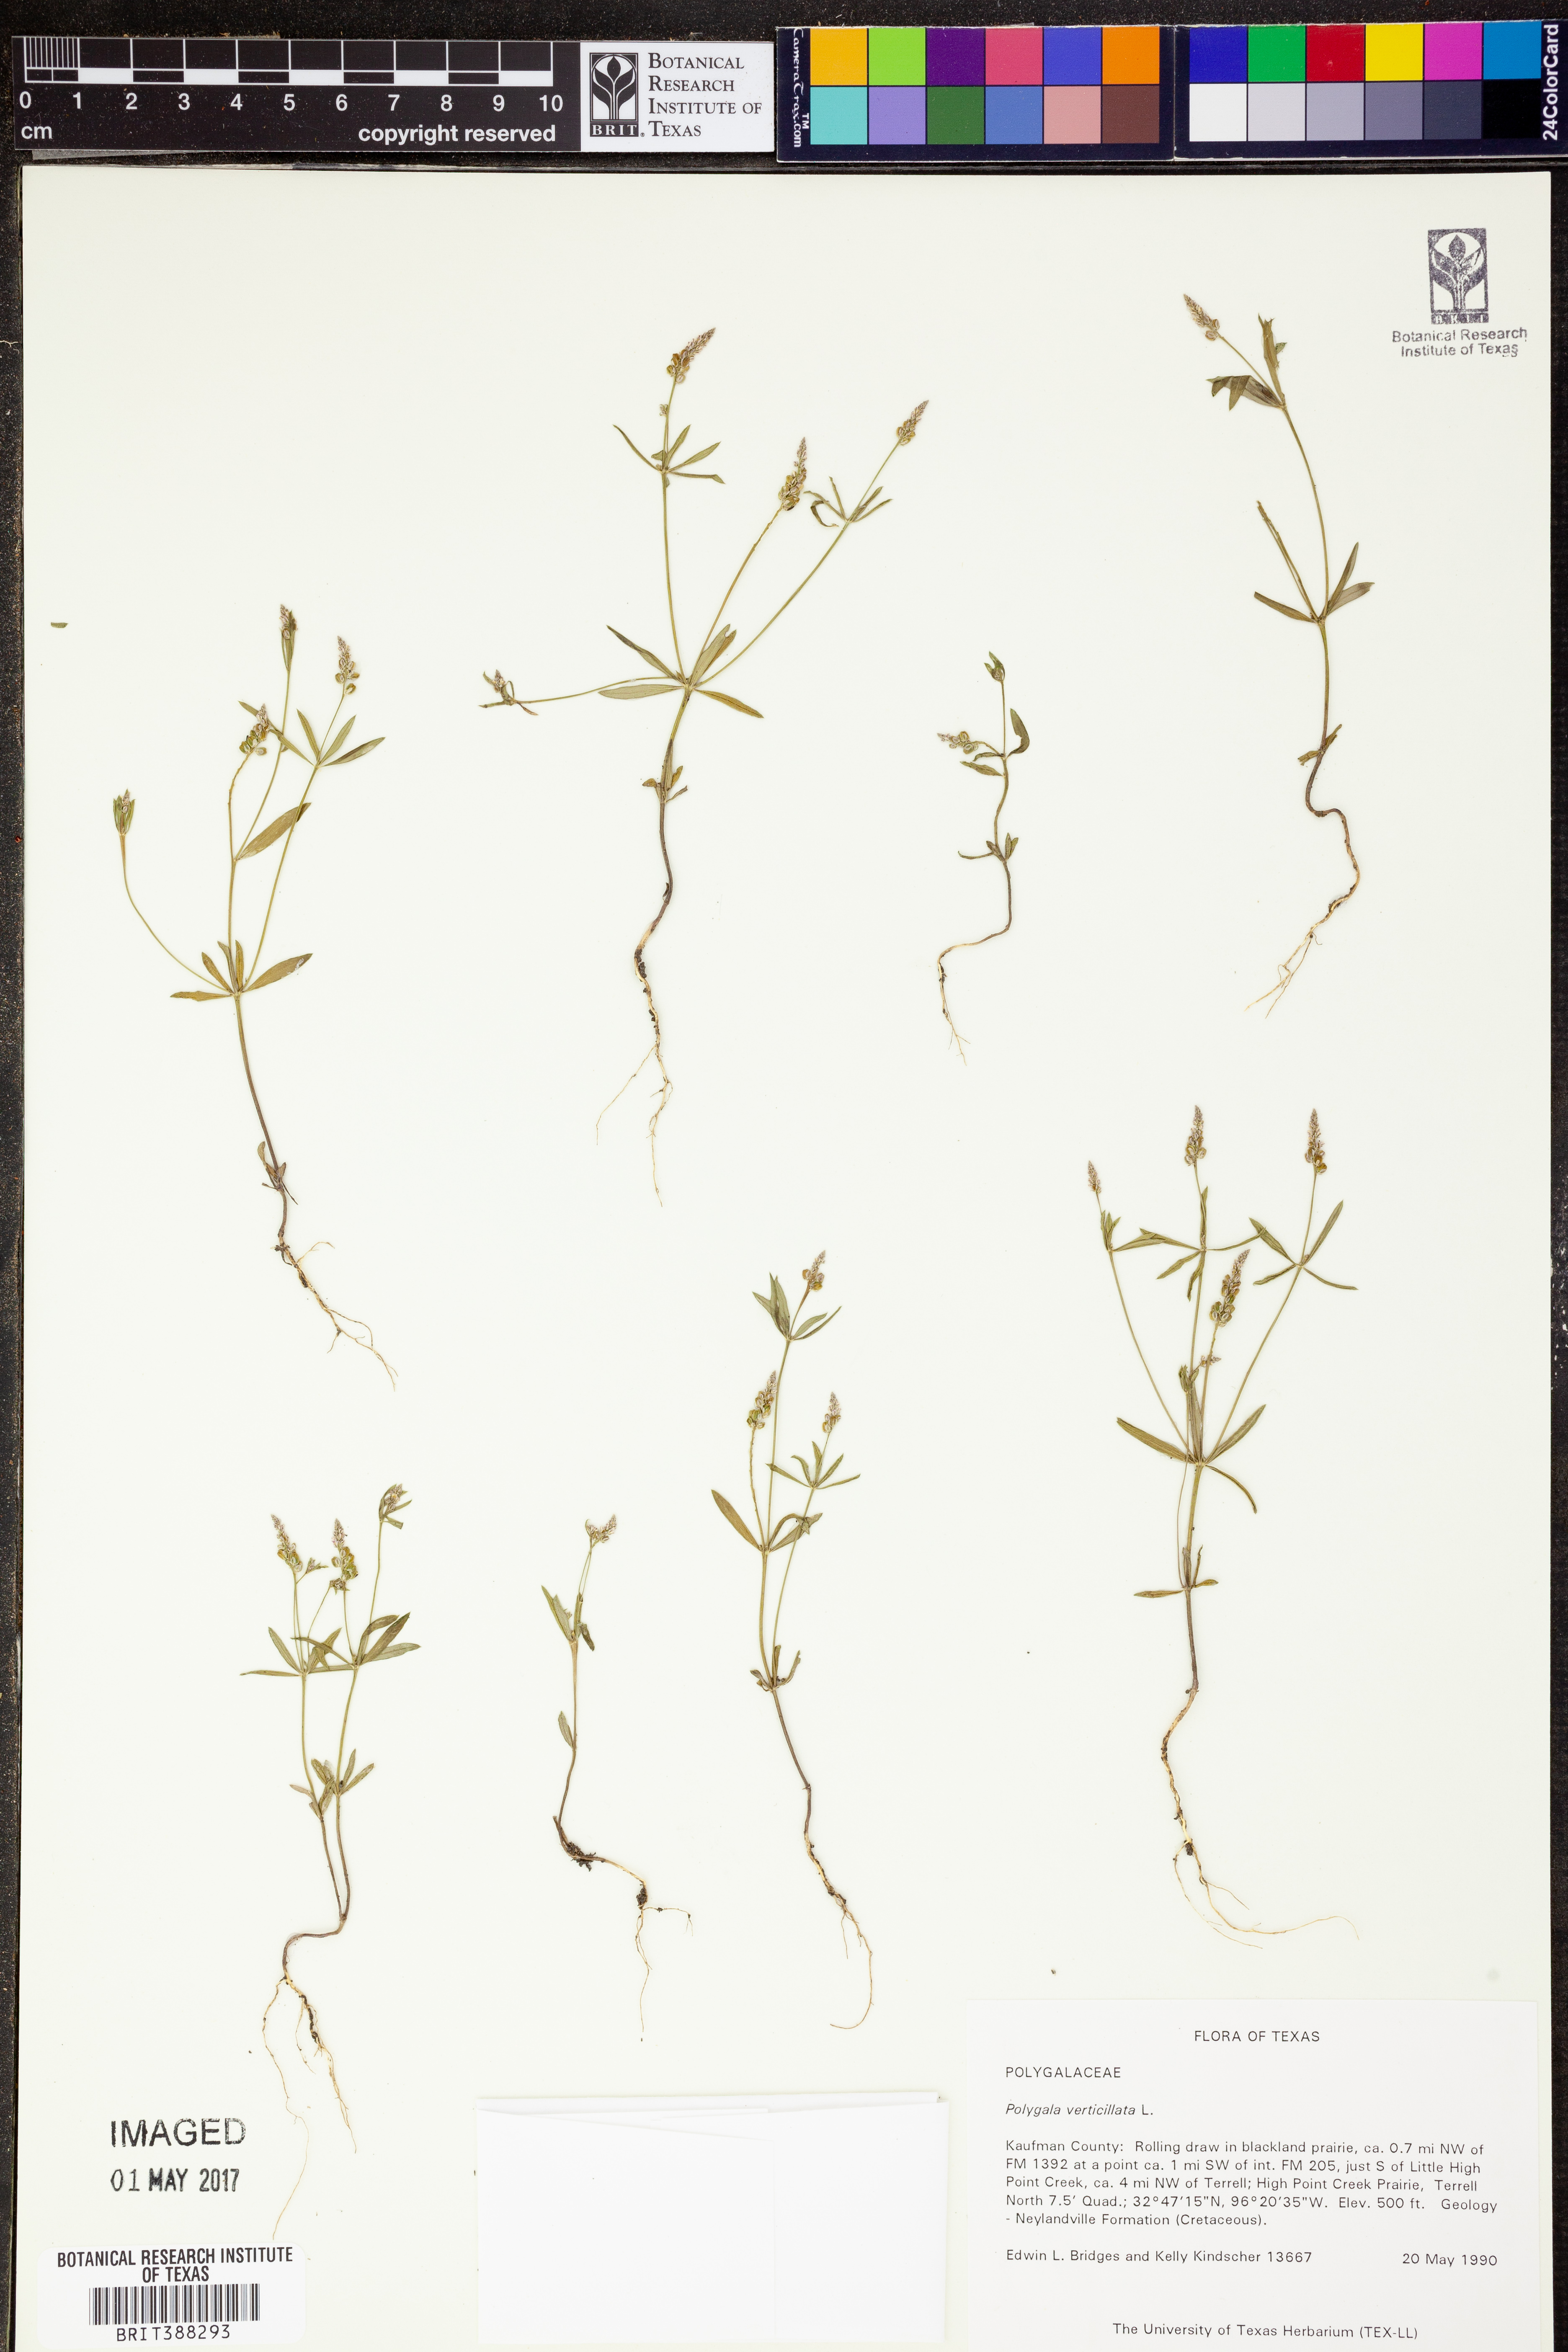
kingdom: Plantae
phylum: Tracheophyta
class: Magnoliopsida
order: Fabales
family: Polygalaceae
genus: Polygala
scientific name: Polygala verticillata
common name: Whorl milkwort
